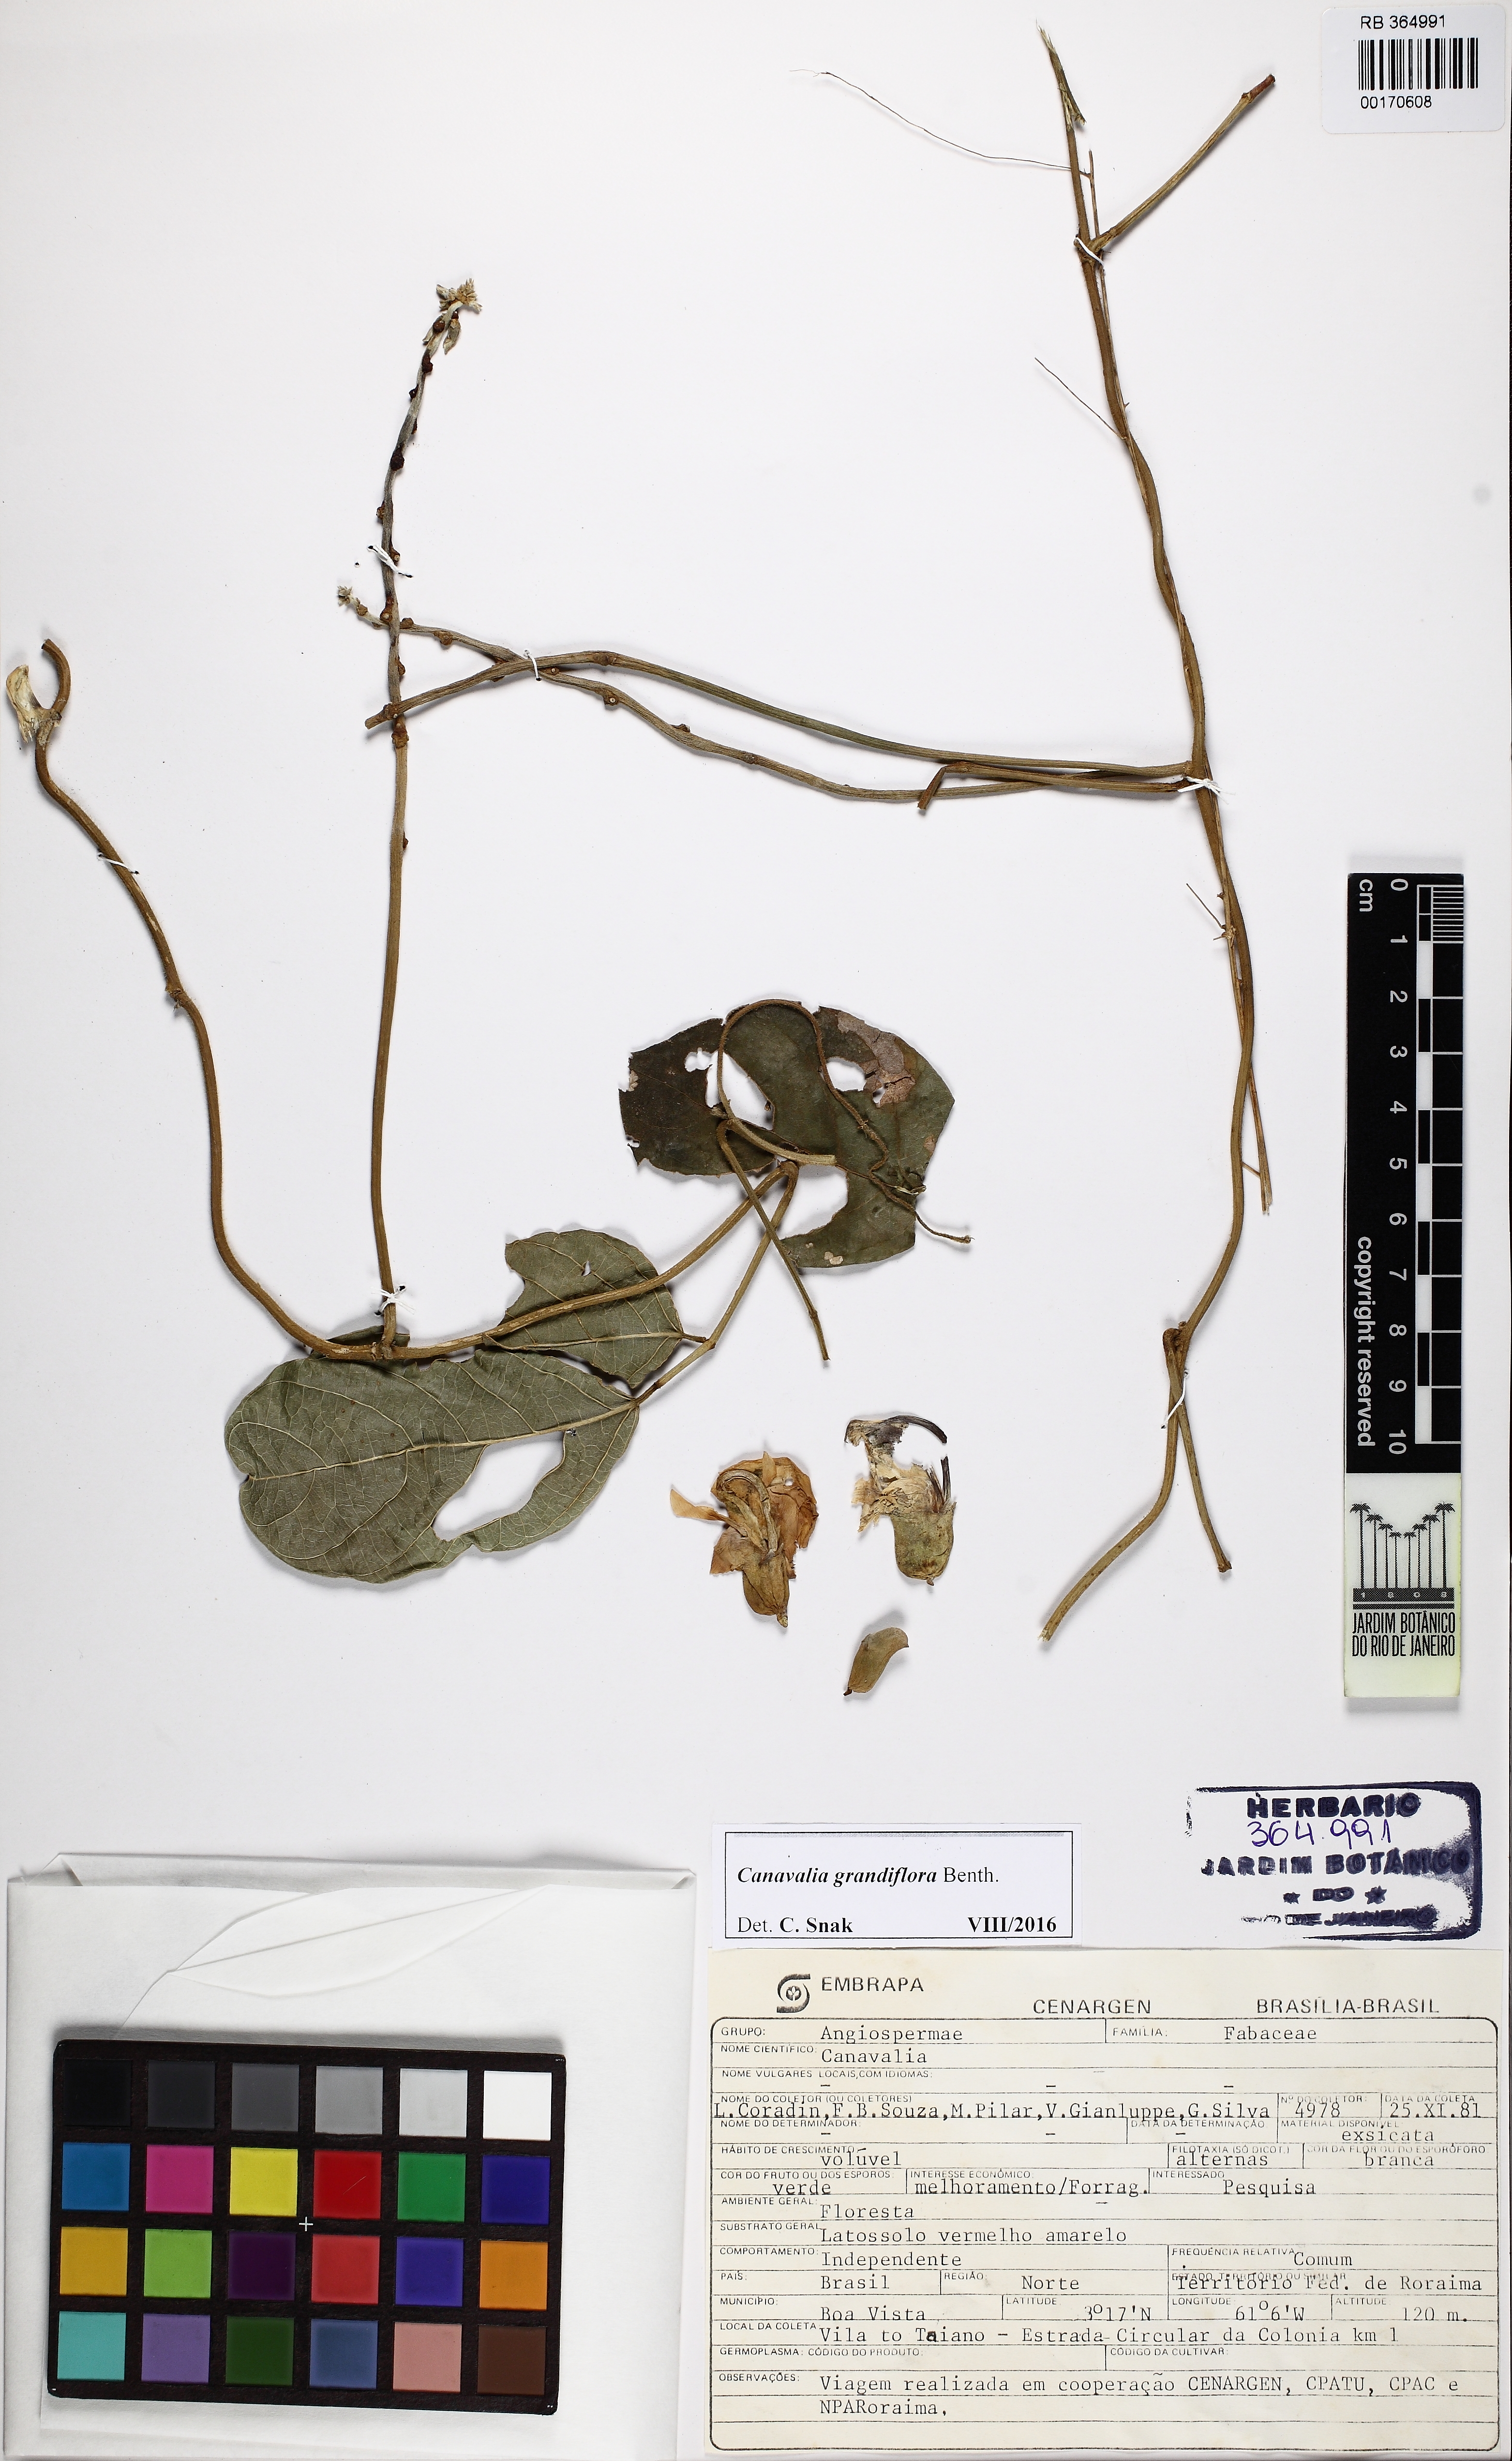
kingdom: Plantae
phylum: Tracheophyta
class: Magnoliopsida
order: Fabales
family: Fabaceae
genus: Canavalia
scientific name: Canavalia grandiflora
